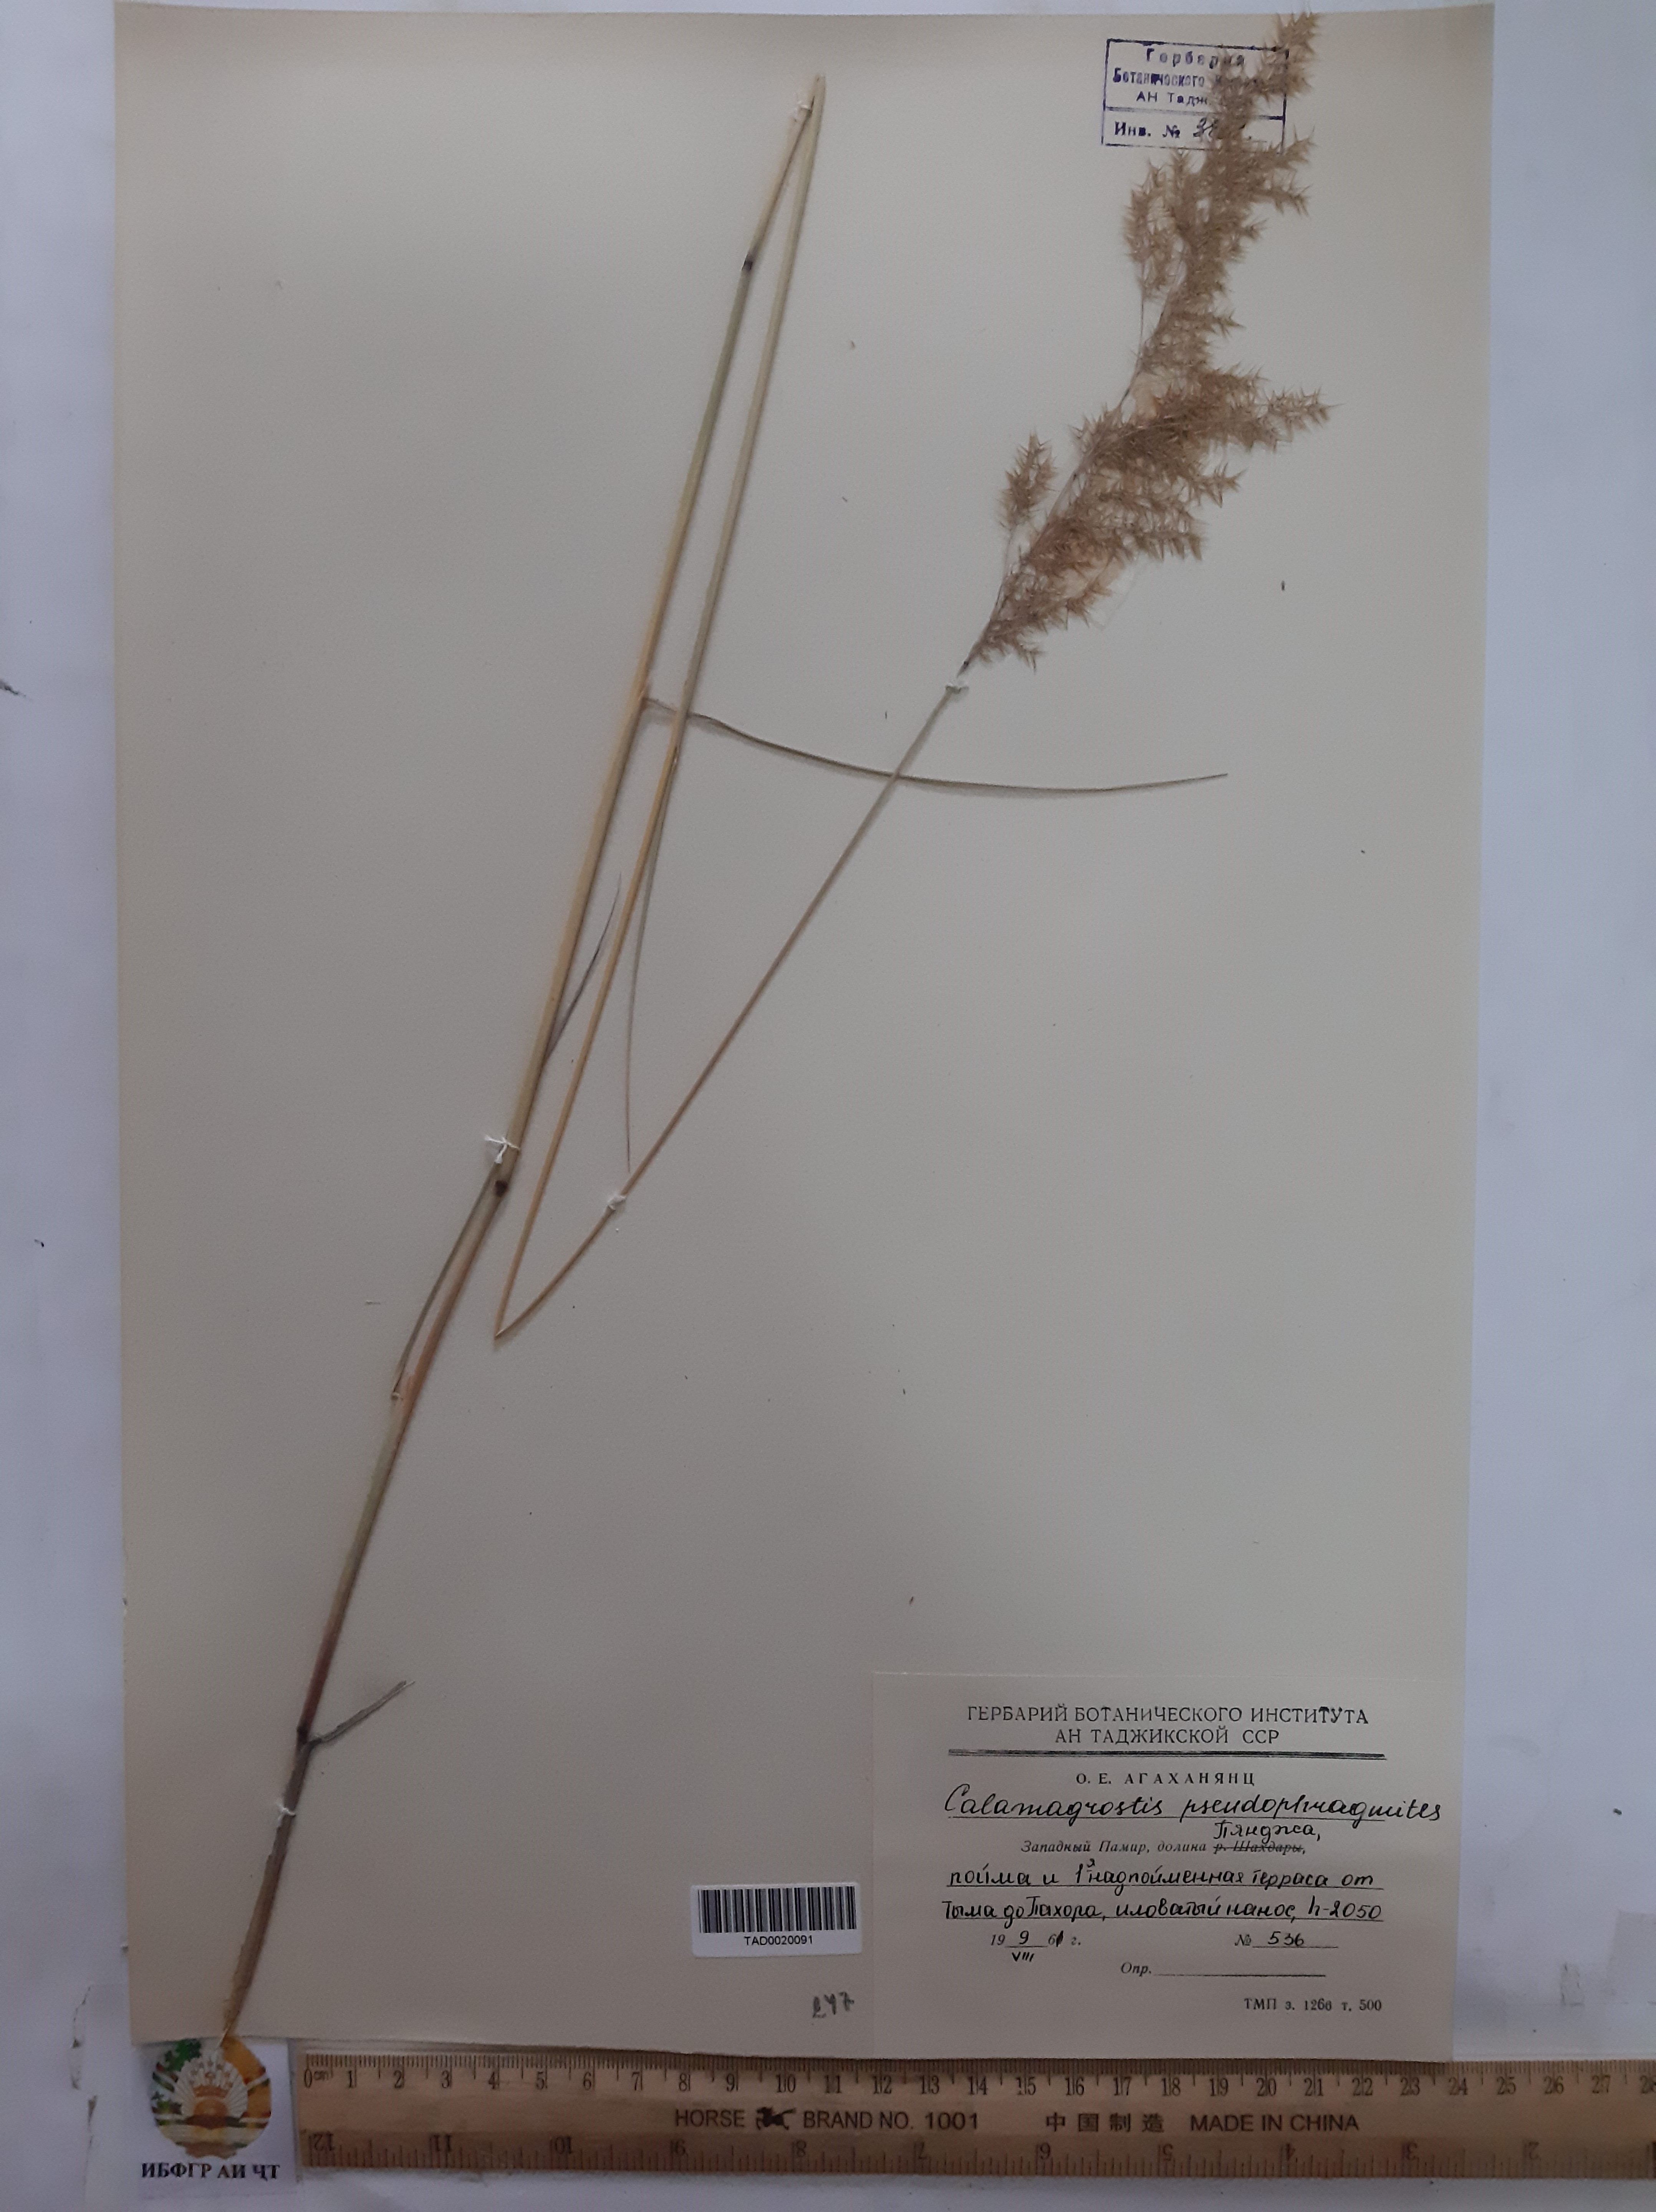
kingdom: Plantae
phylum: Tracheophyta
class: Liliopsida
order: Poales
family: Poaceae
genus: Calamagrostis
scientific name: Calamagrostis pseudophragmites
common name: Coastal small-reed
